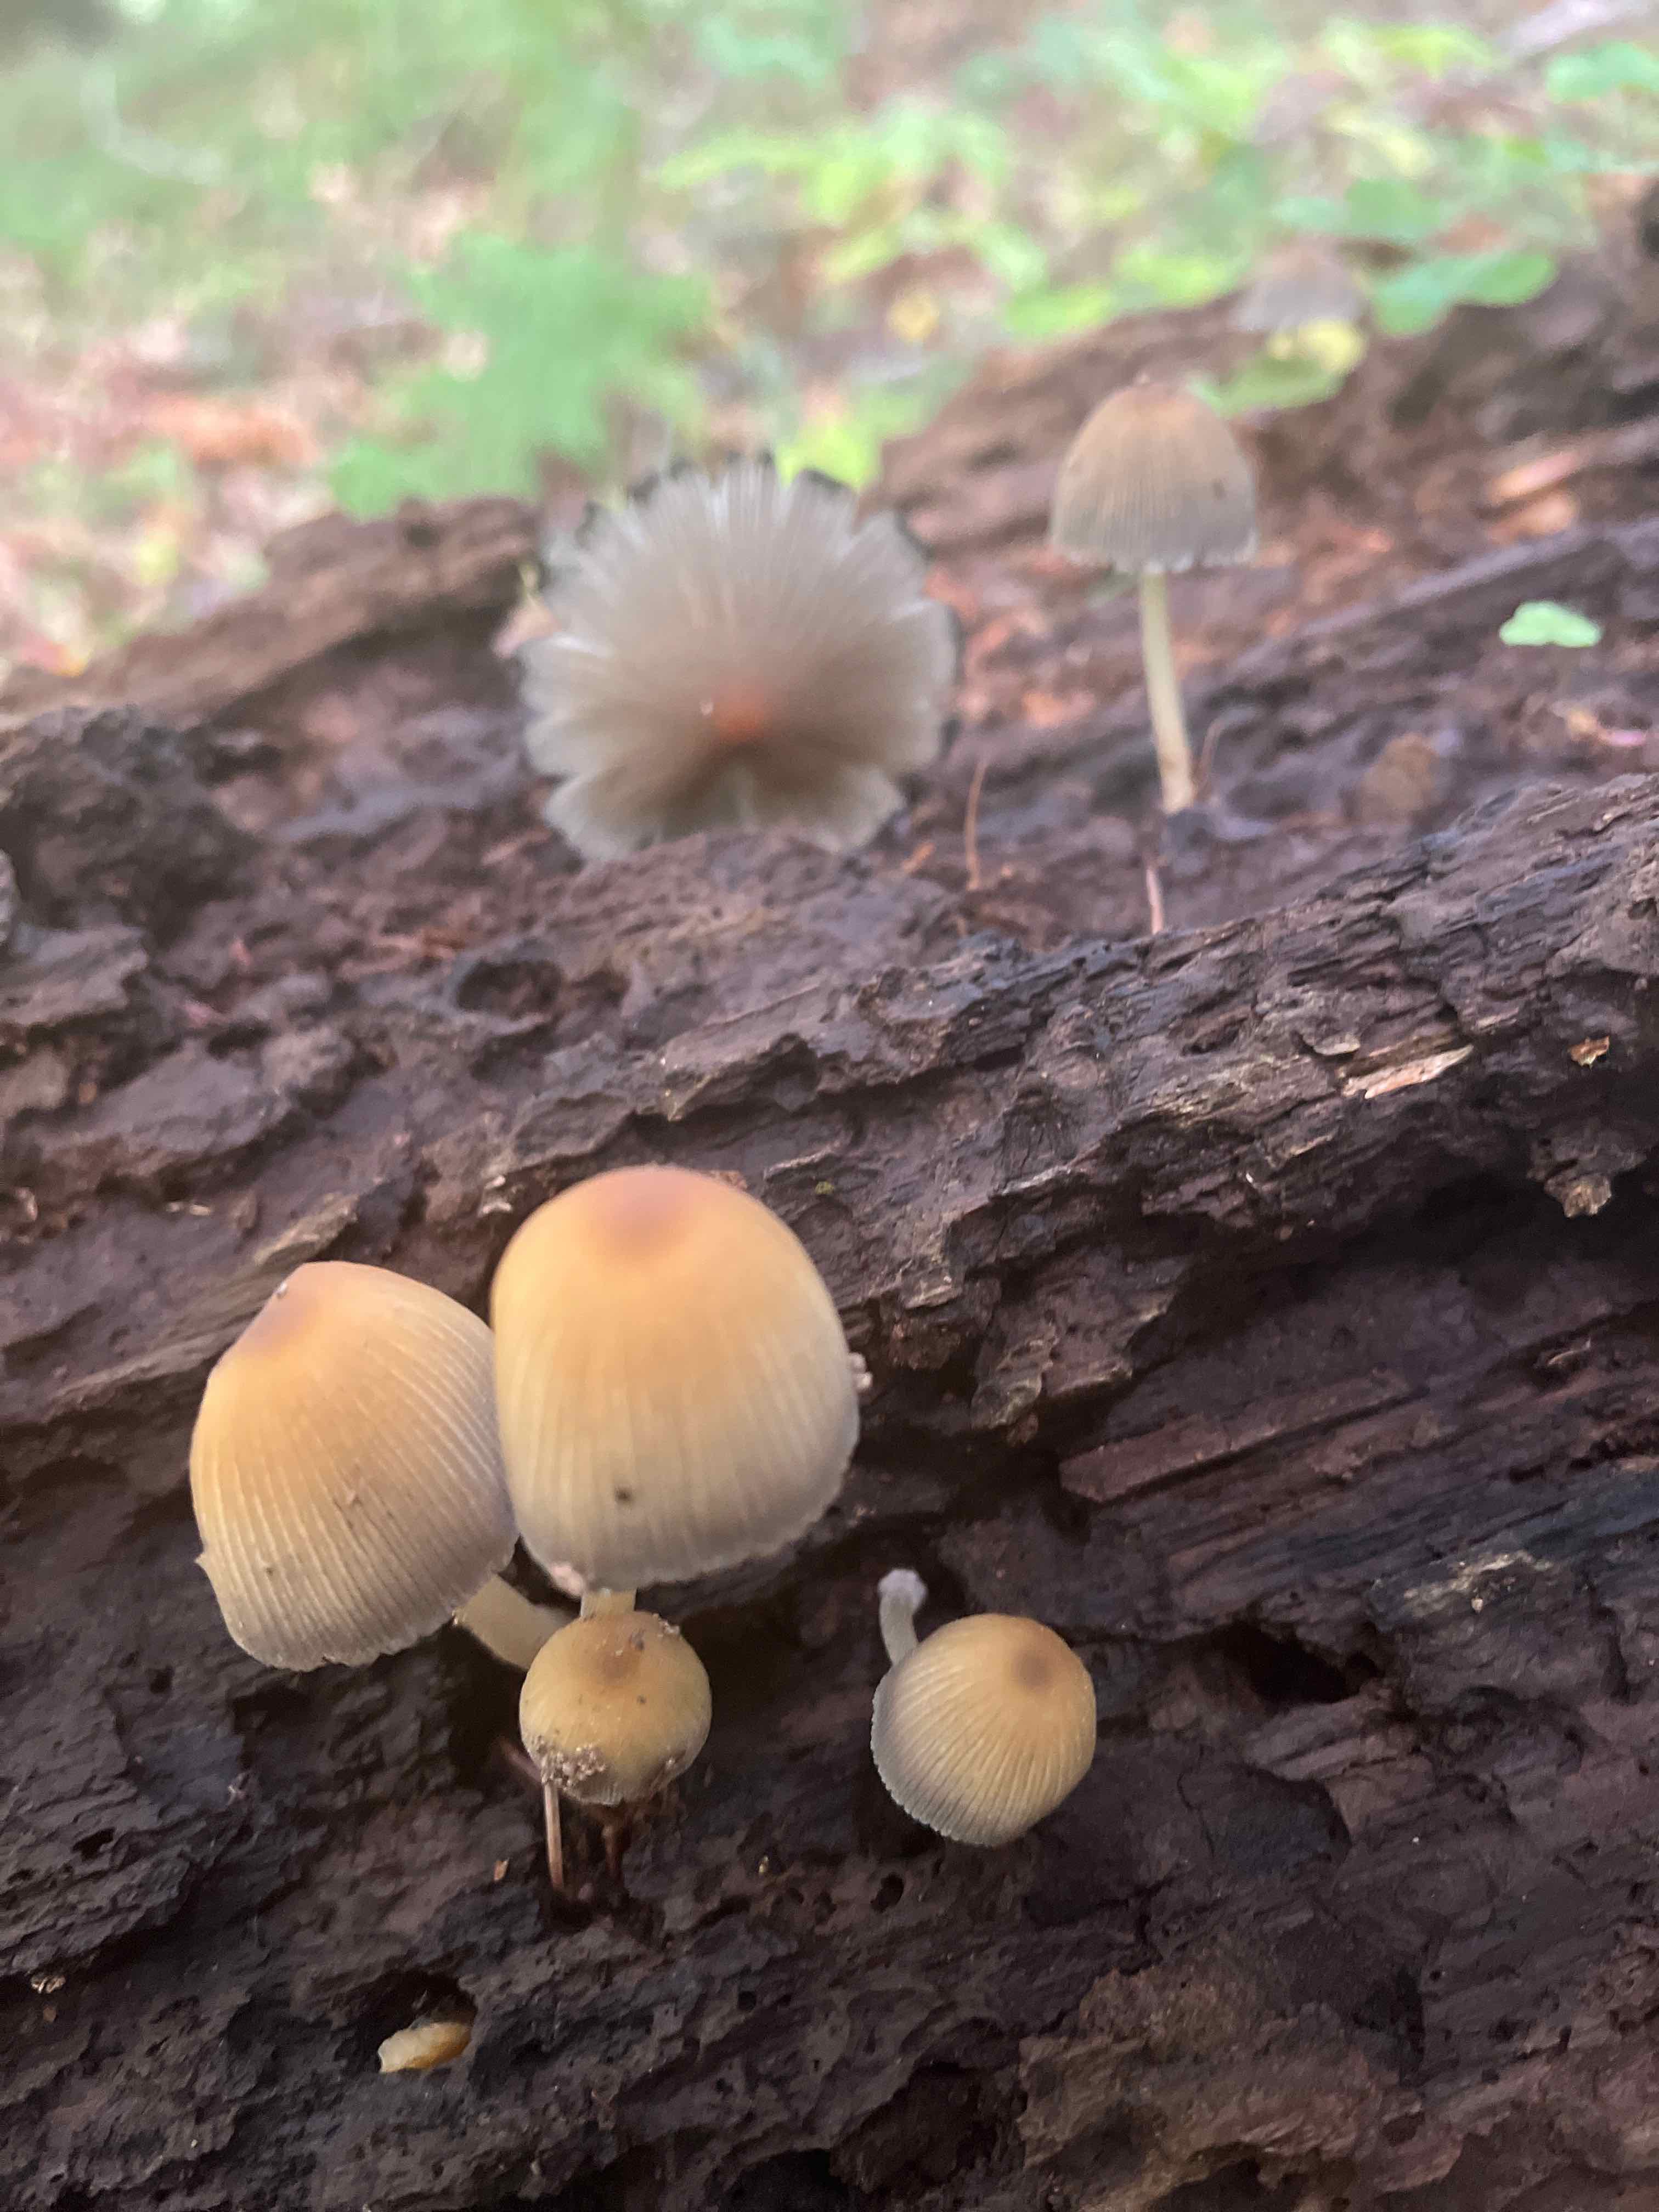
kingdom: Fungi
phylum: Basidiomycota
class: Agaricomycetes
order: Agaricales
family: Psathyrellaceae
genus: Coprinellus
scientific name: Coprinellus
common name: blækhat
